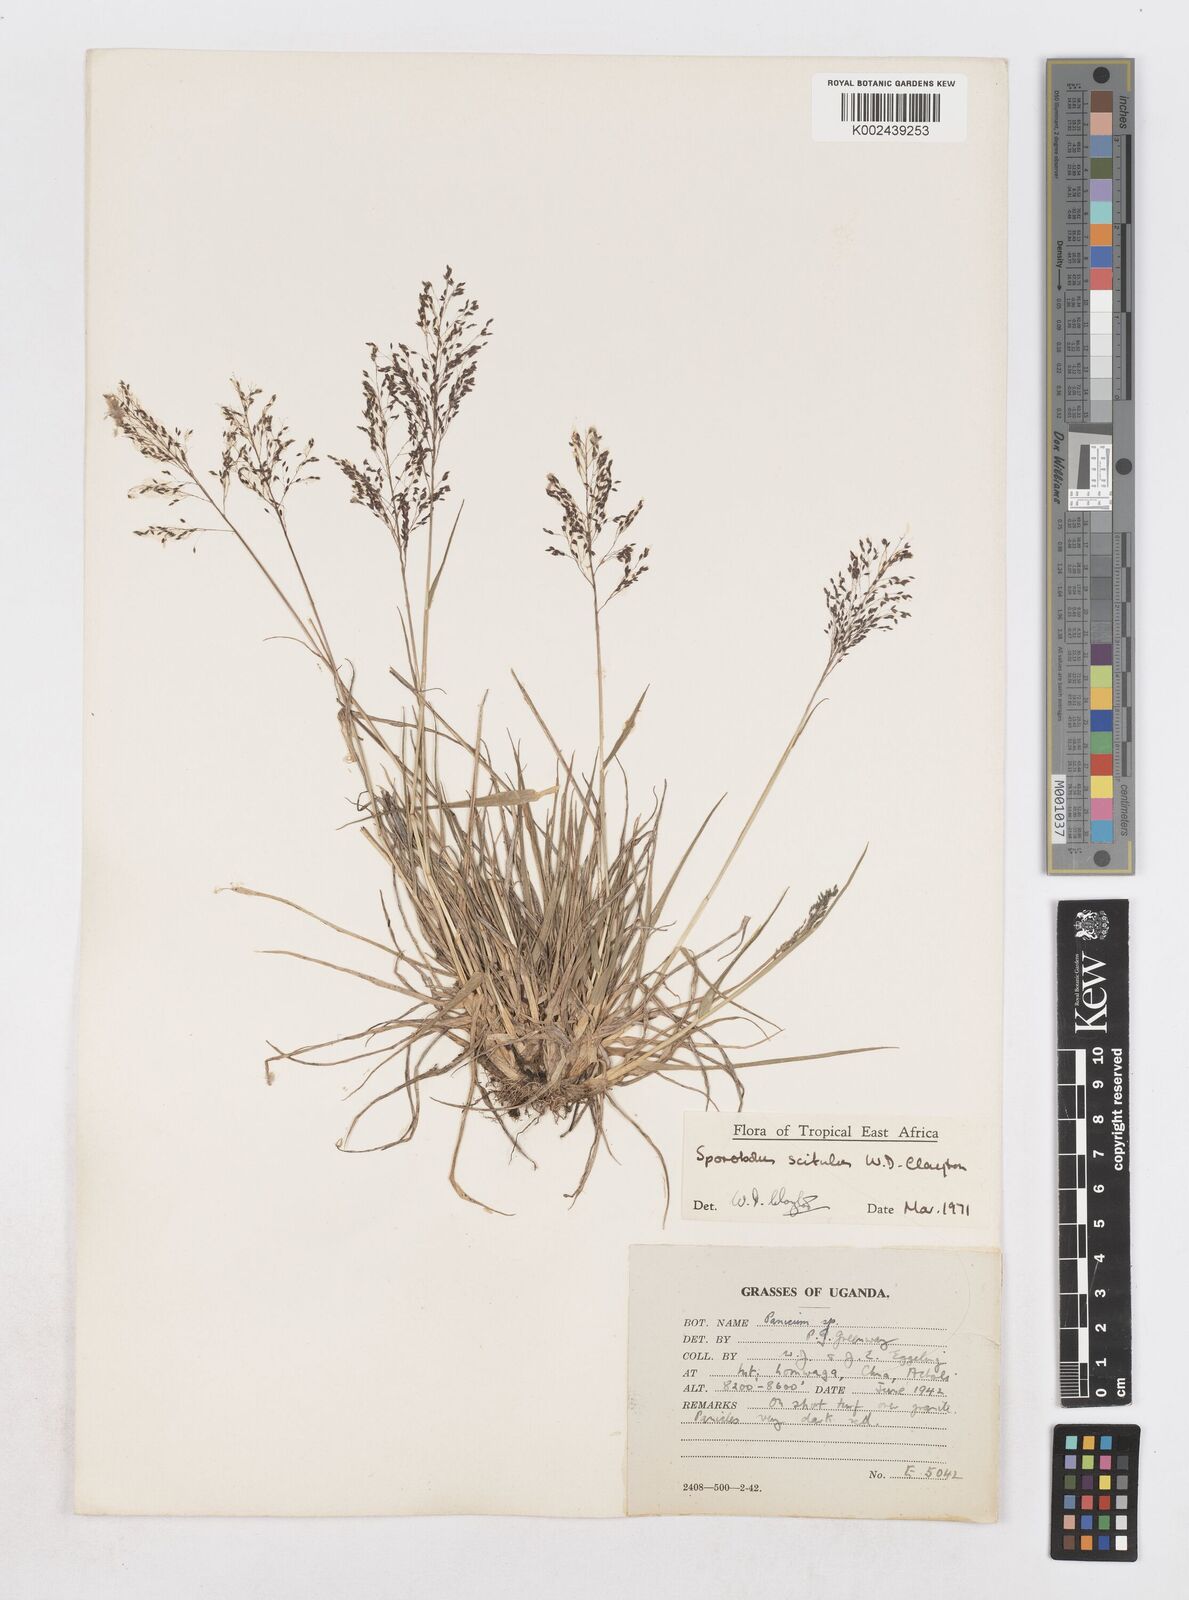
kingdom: Plantae
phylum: Tracheophyta
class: Liliopsida
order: Poales
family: Poaceae
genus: Sporobolus
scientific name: Sporobolus scitulus
